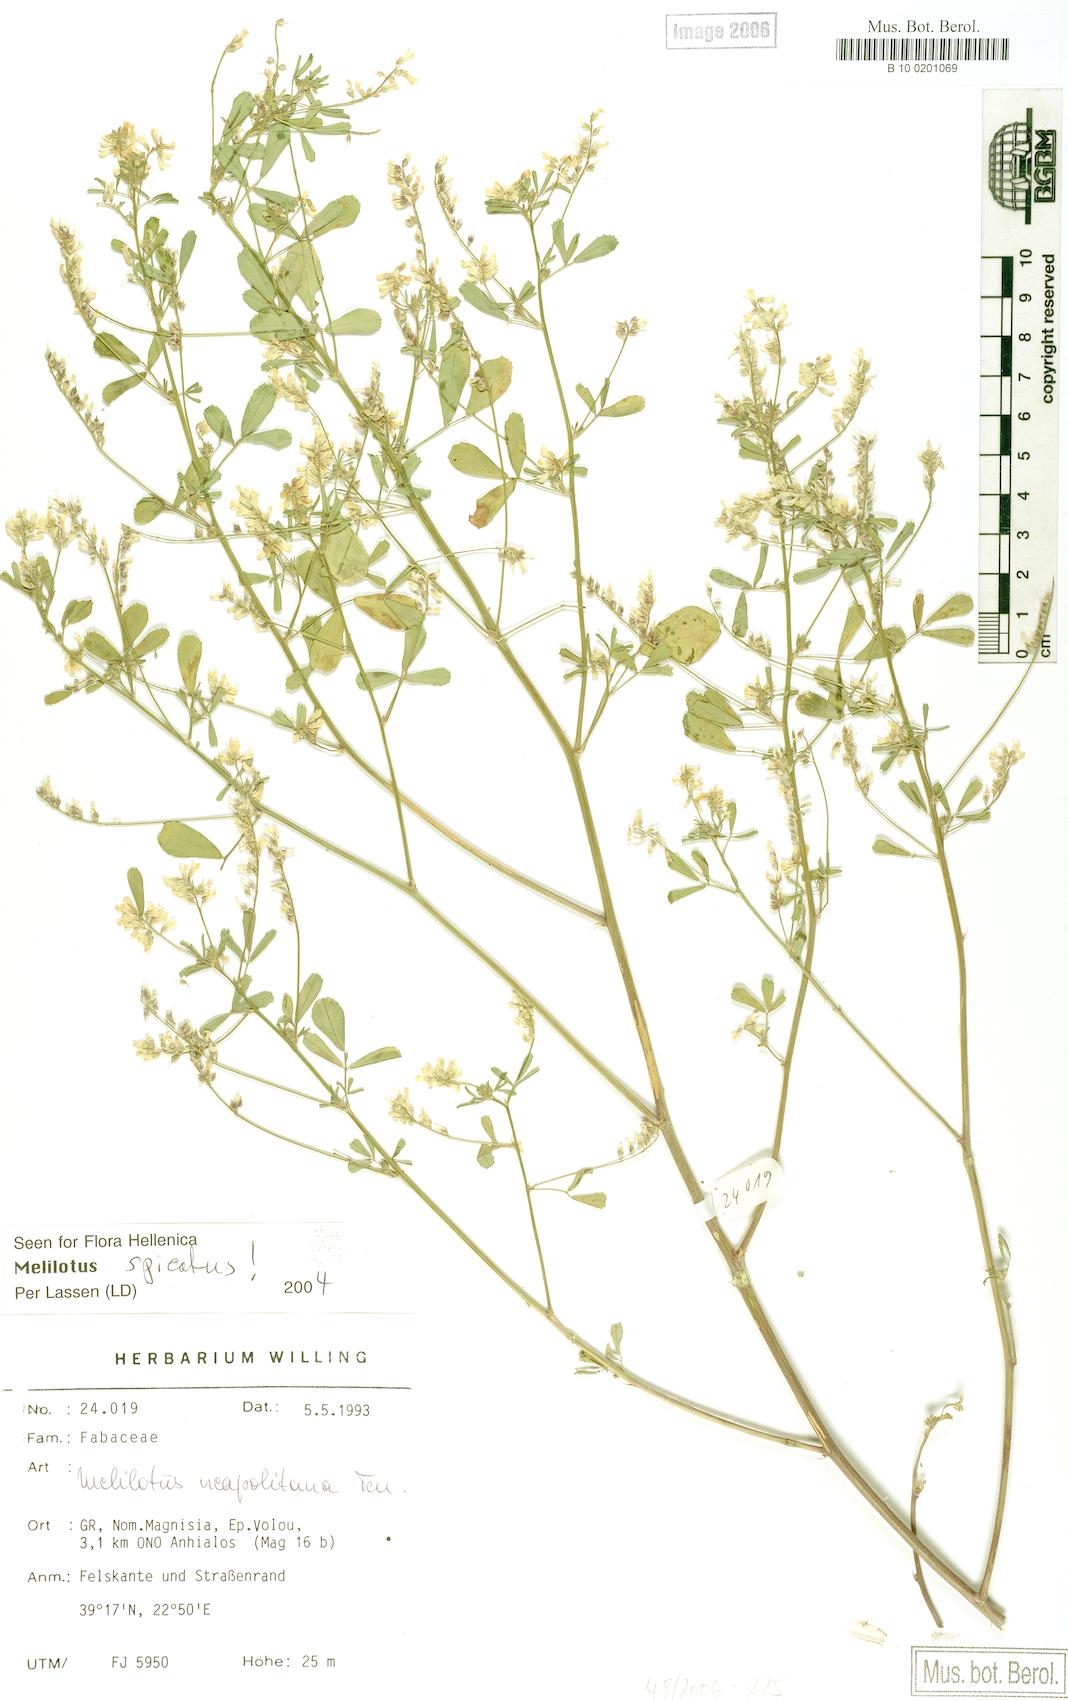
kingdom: Plantae
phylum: Tracheophyta
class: Magnoliopsida
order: Fabales
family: Fabaceae
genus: Melilotus
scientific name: Melilotus neapolitanus
